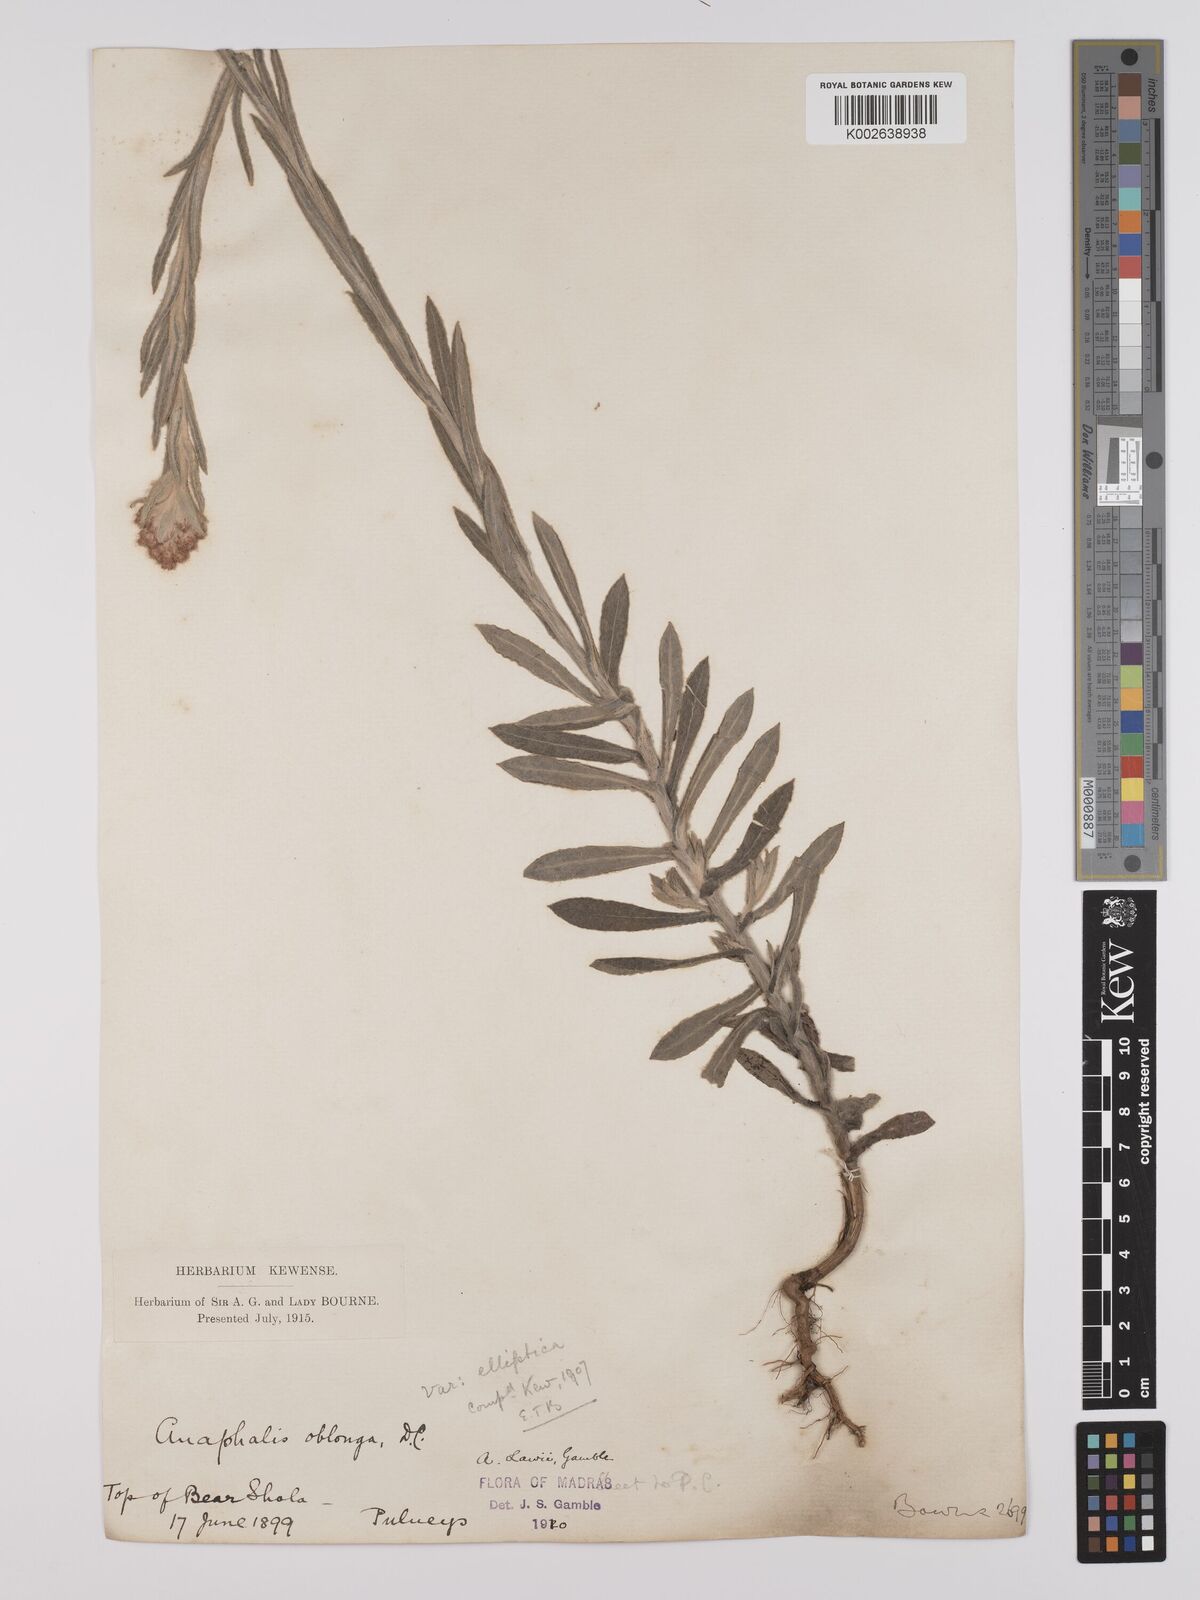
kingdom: Plantae
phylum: Tracheophyta
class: Magnoliopsida
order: Asterales
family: Asteraceae
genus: Anaphalis
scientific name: Anaphalis lawii
